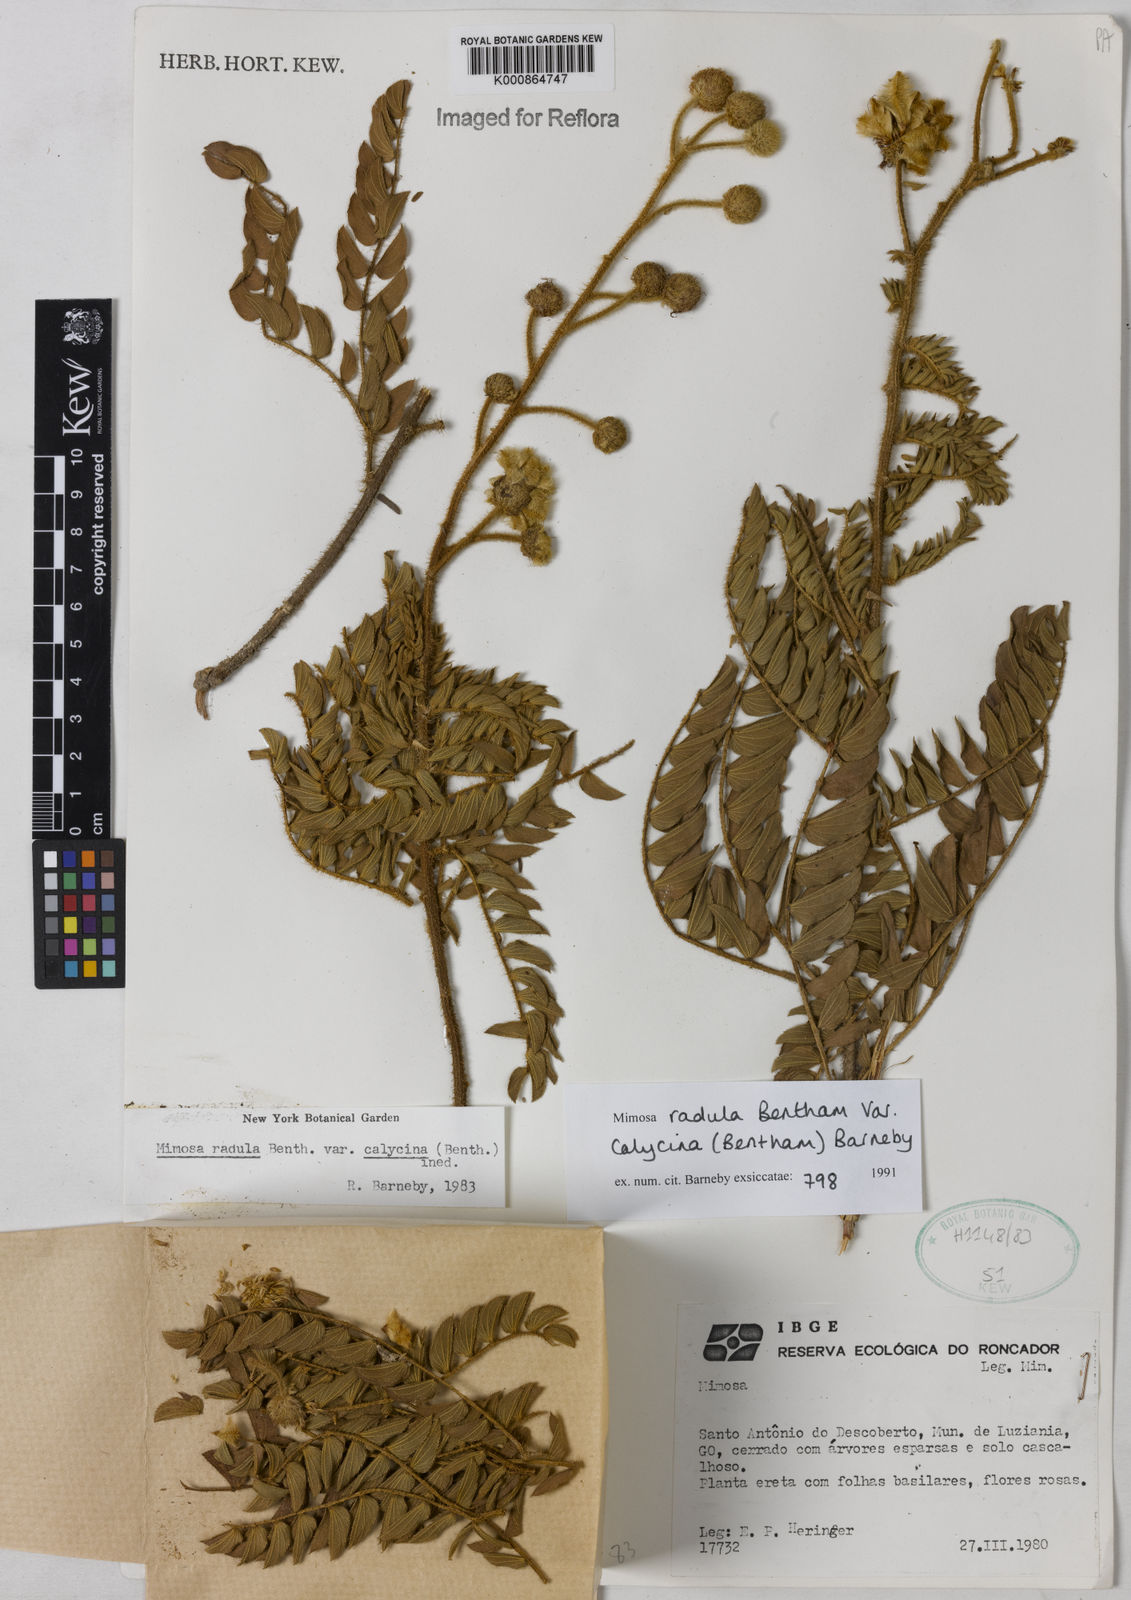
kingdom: Plantae
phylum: Tracheophyta
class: Magnoliopsida
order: Fabales
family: Fabaceae
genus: Mimosa
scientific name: Mimosa radula
